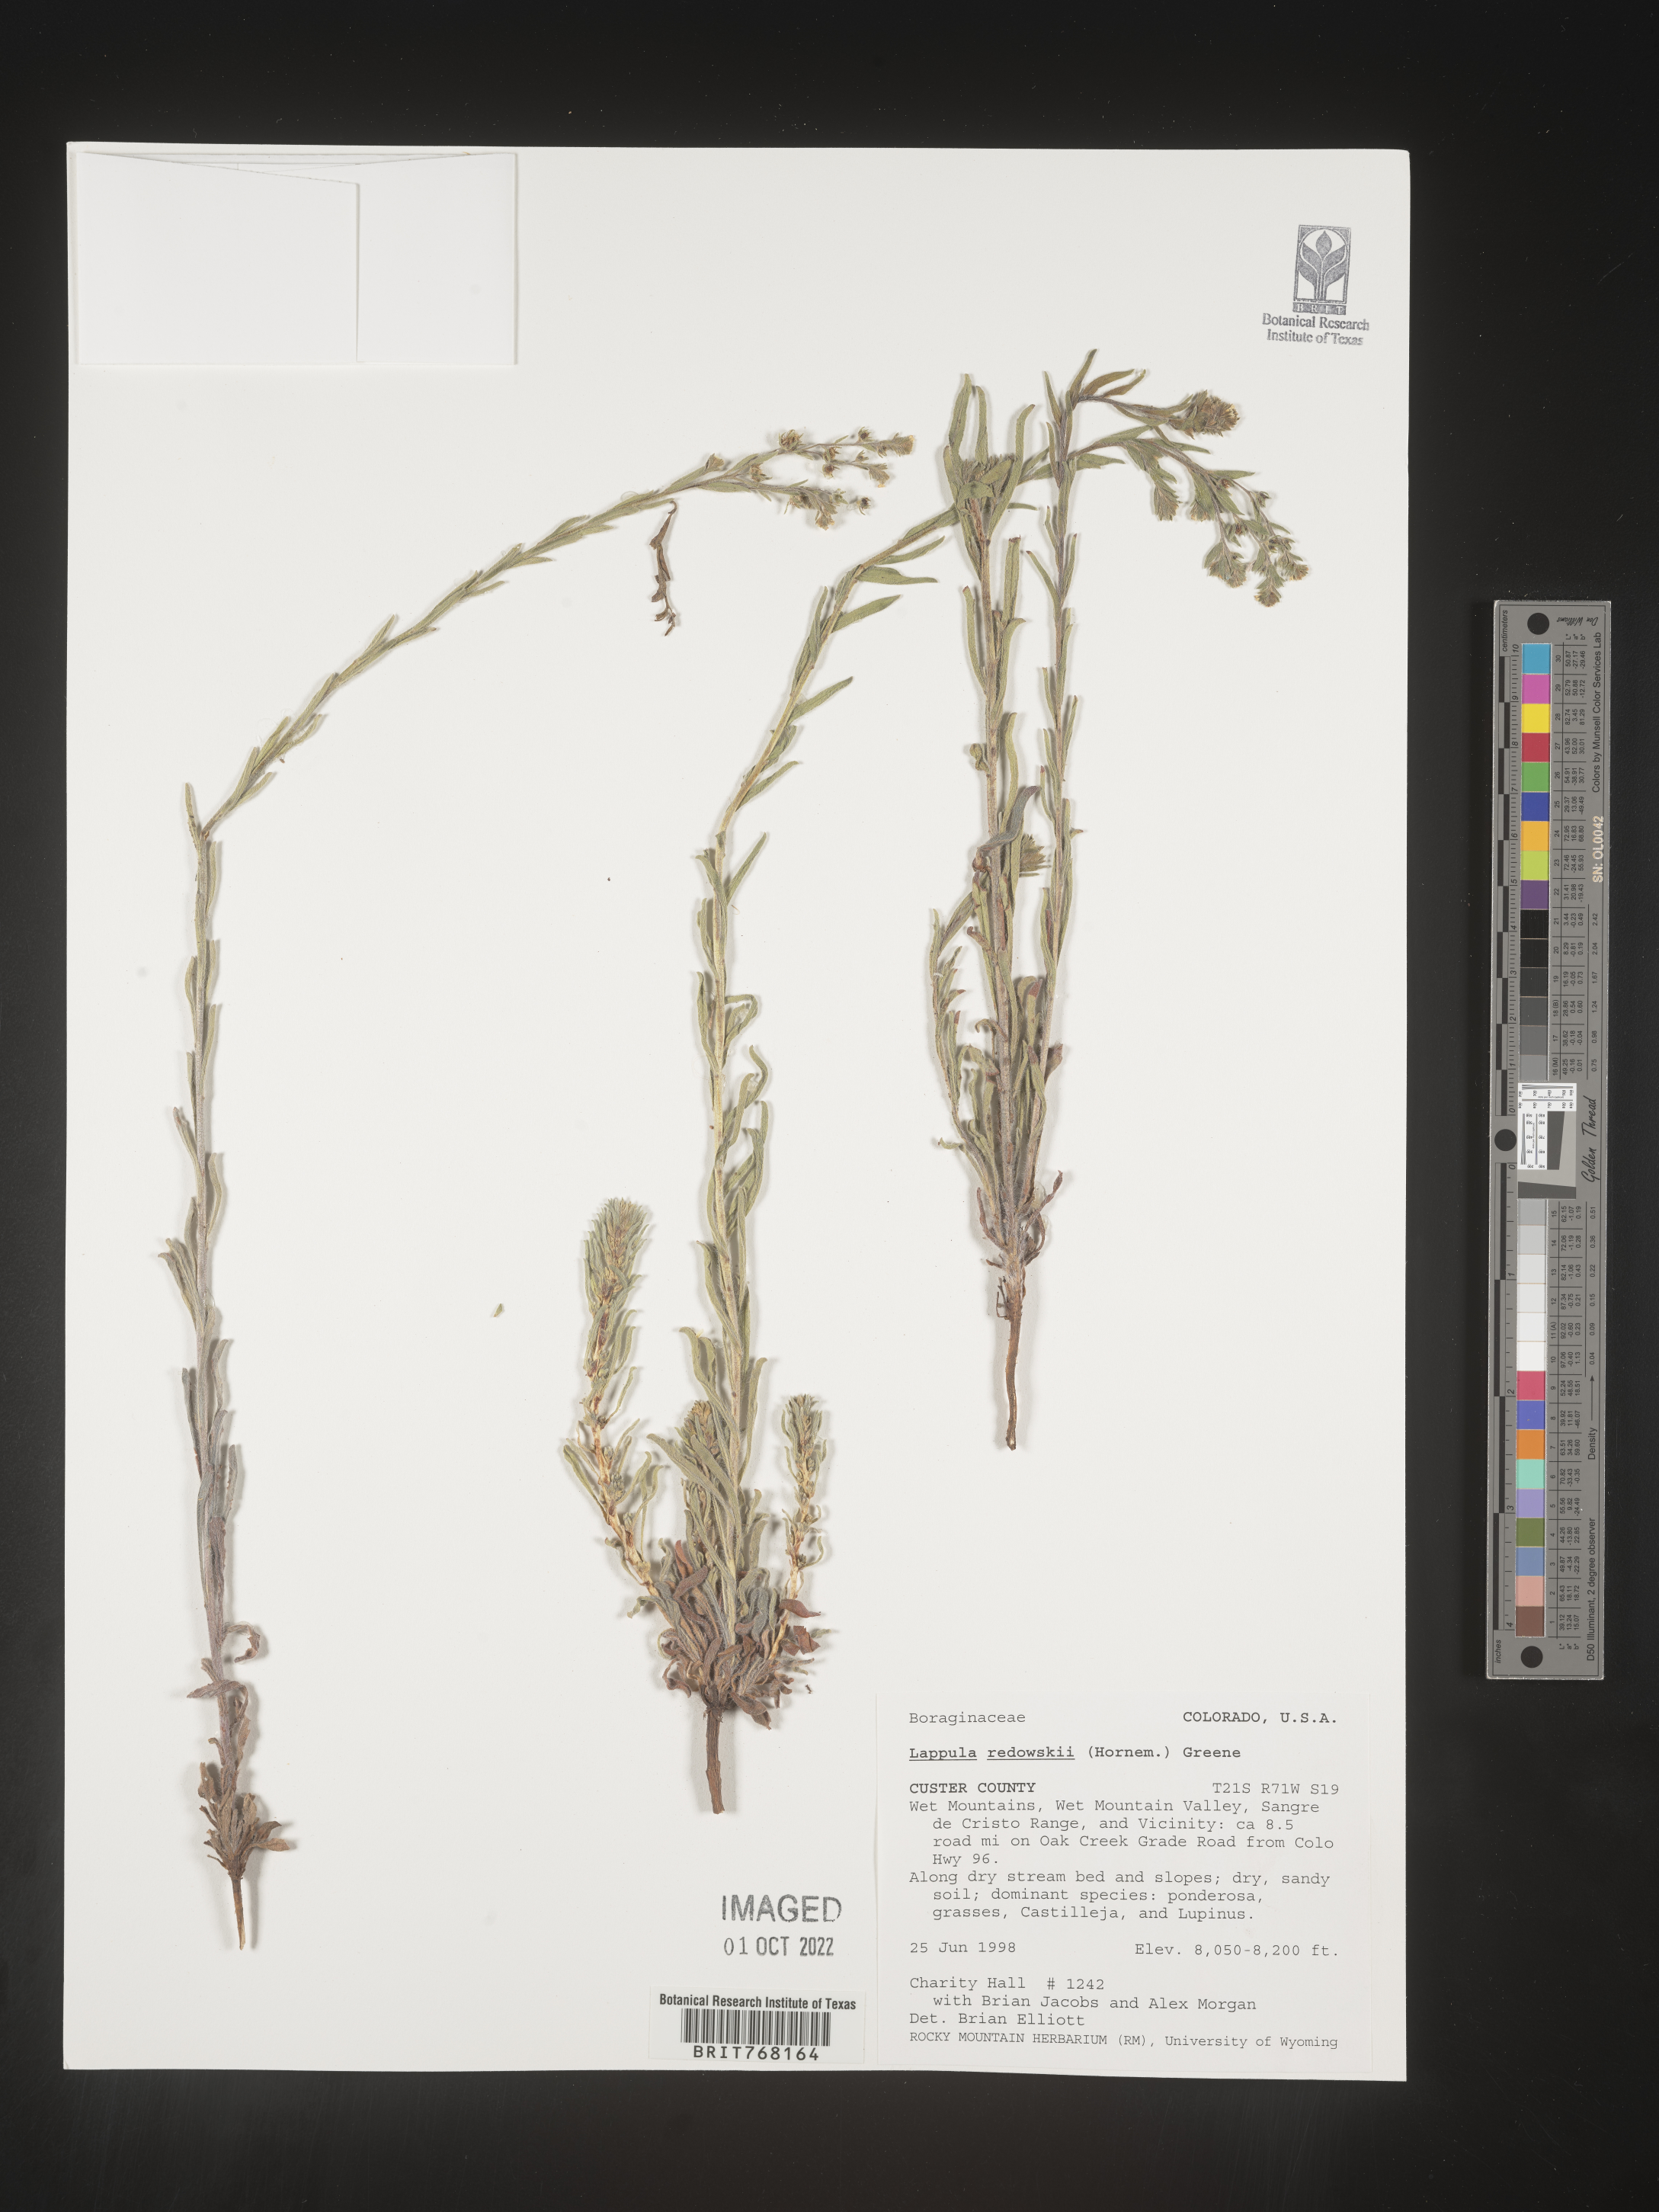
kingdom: Plantae
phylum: Tracheophyta
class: Magnoliopsida
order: Boraginales
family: Boraginaceae
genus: Lappula
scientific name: Lappula redowskii
